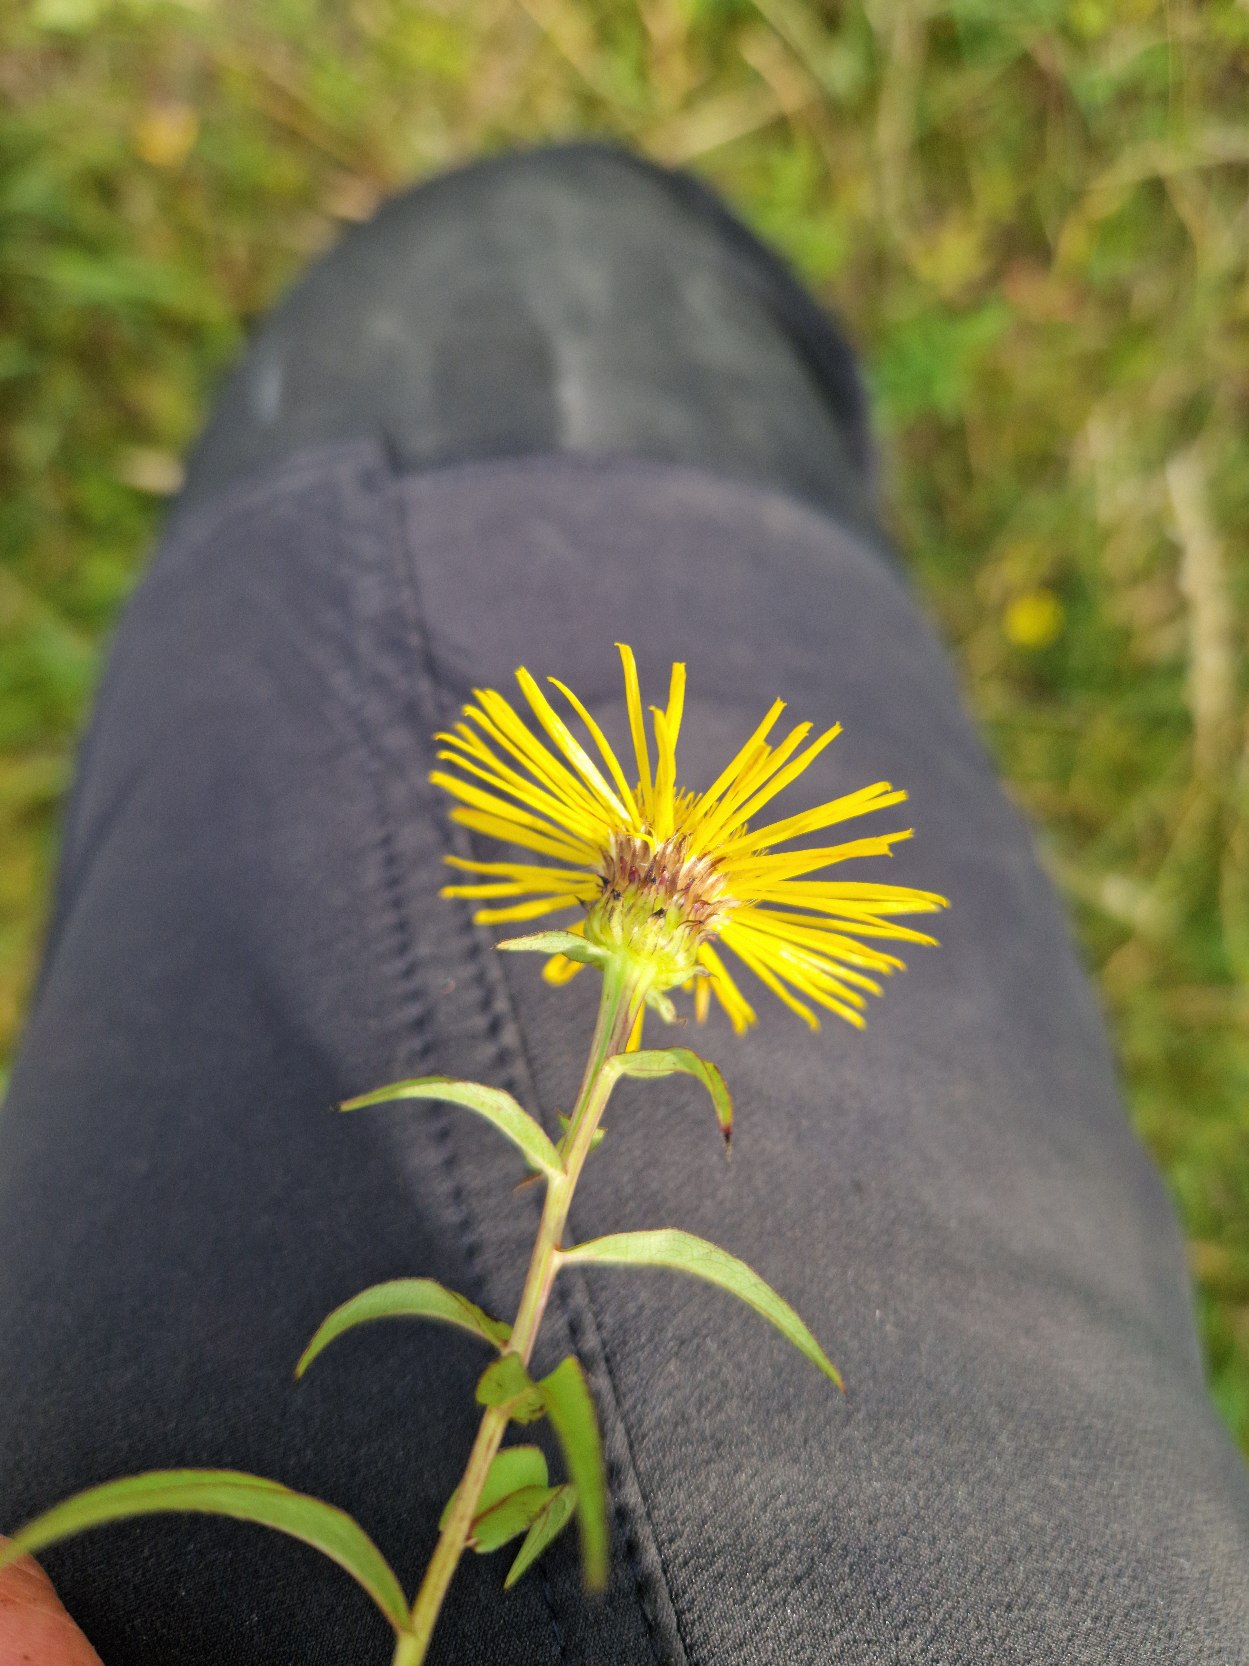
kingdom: Plantae
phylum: Tracheophyta
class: Magnoliopsida
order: Asterales
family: Asteraceae
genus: Pentanema
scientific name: Pentanema salicinum
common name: Pile-alant
